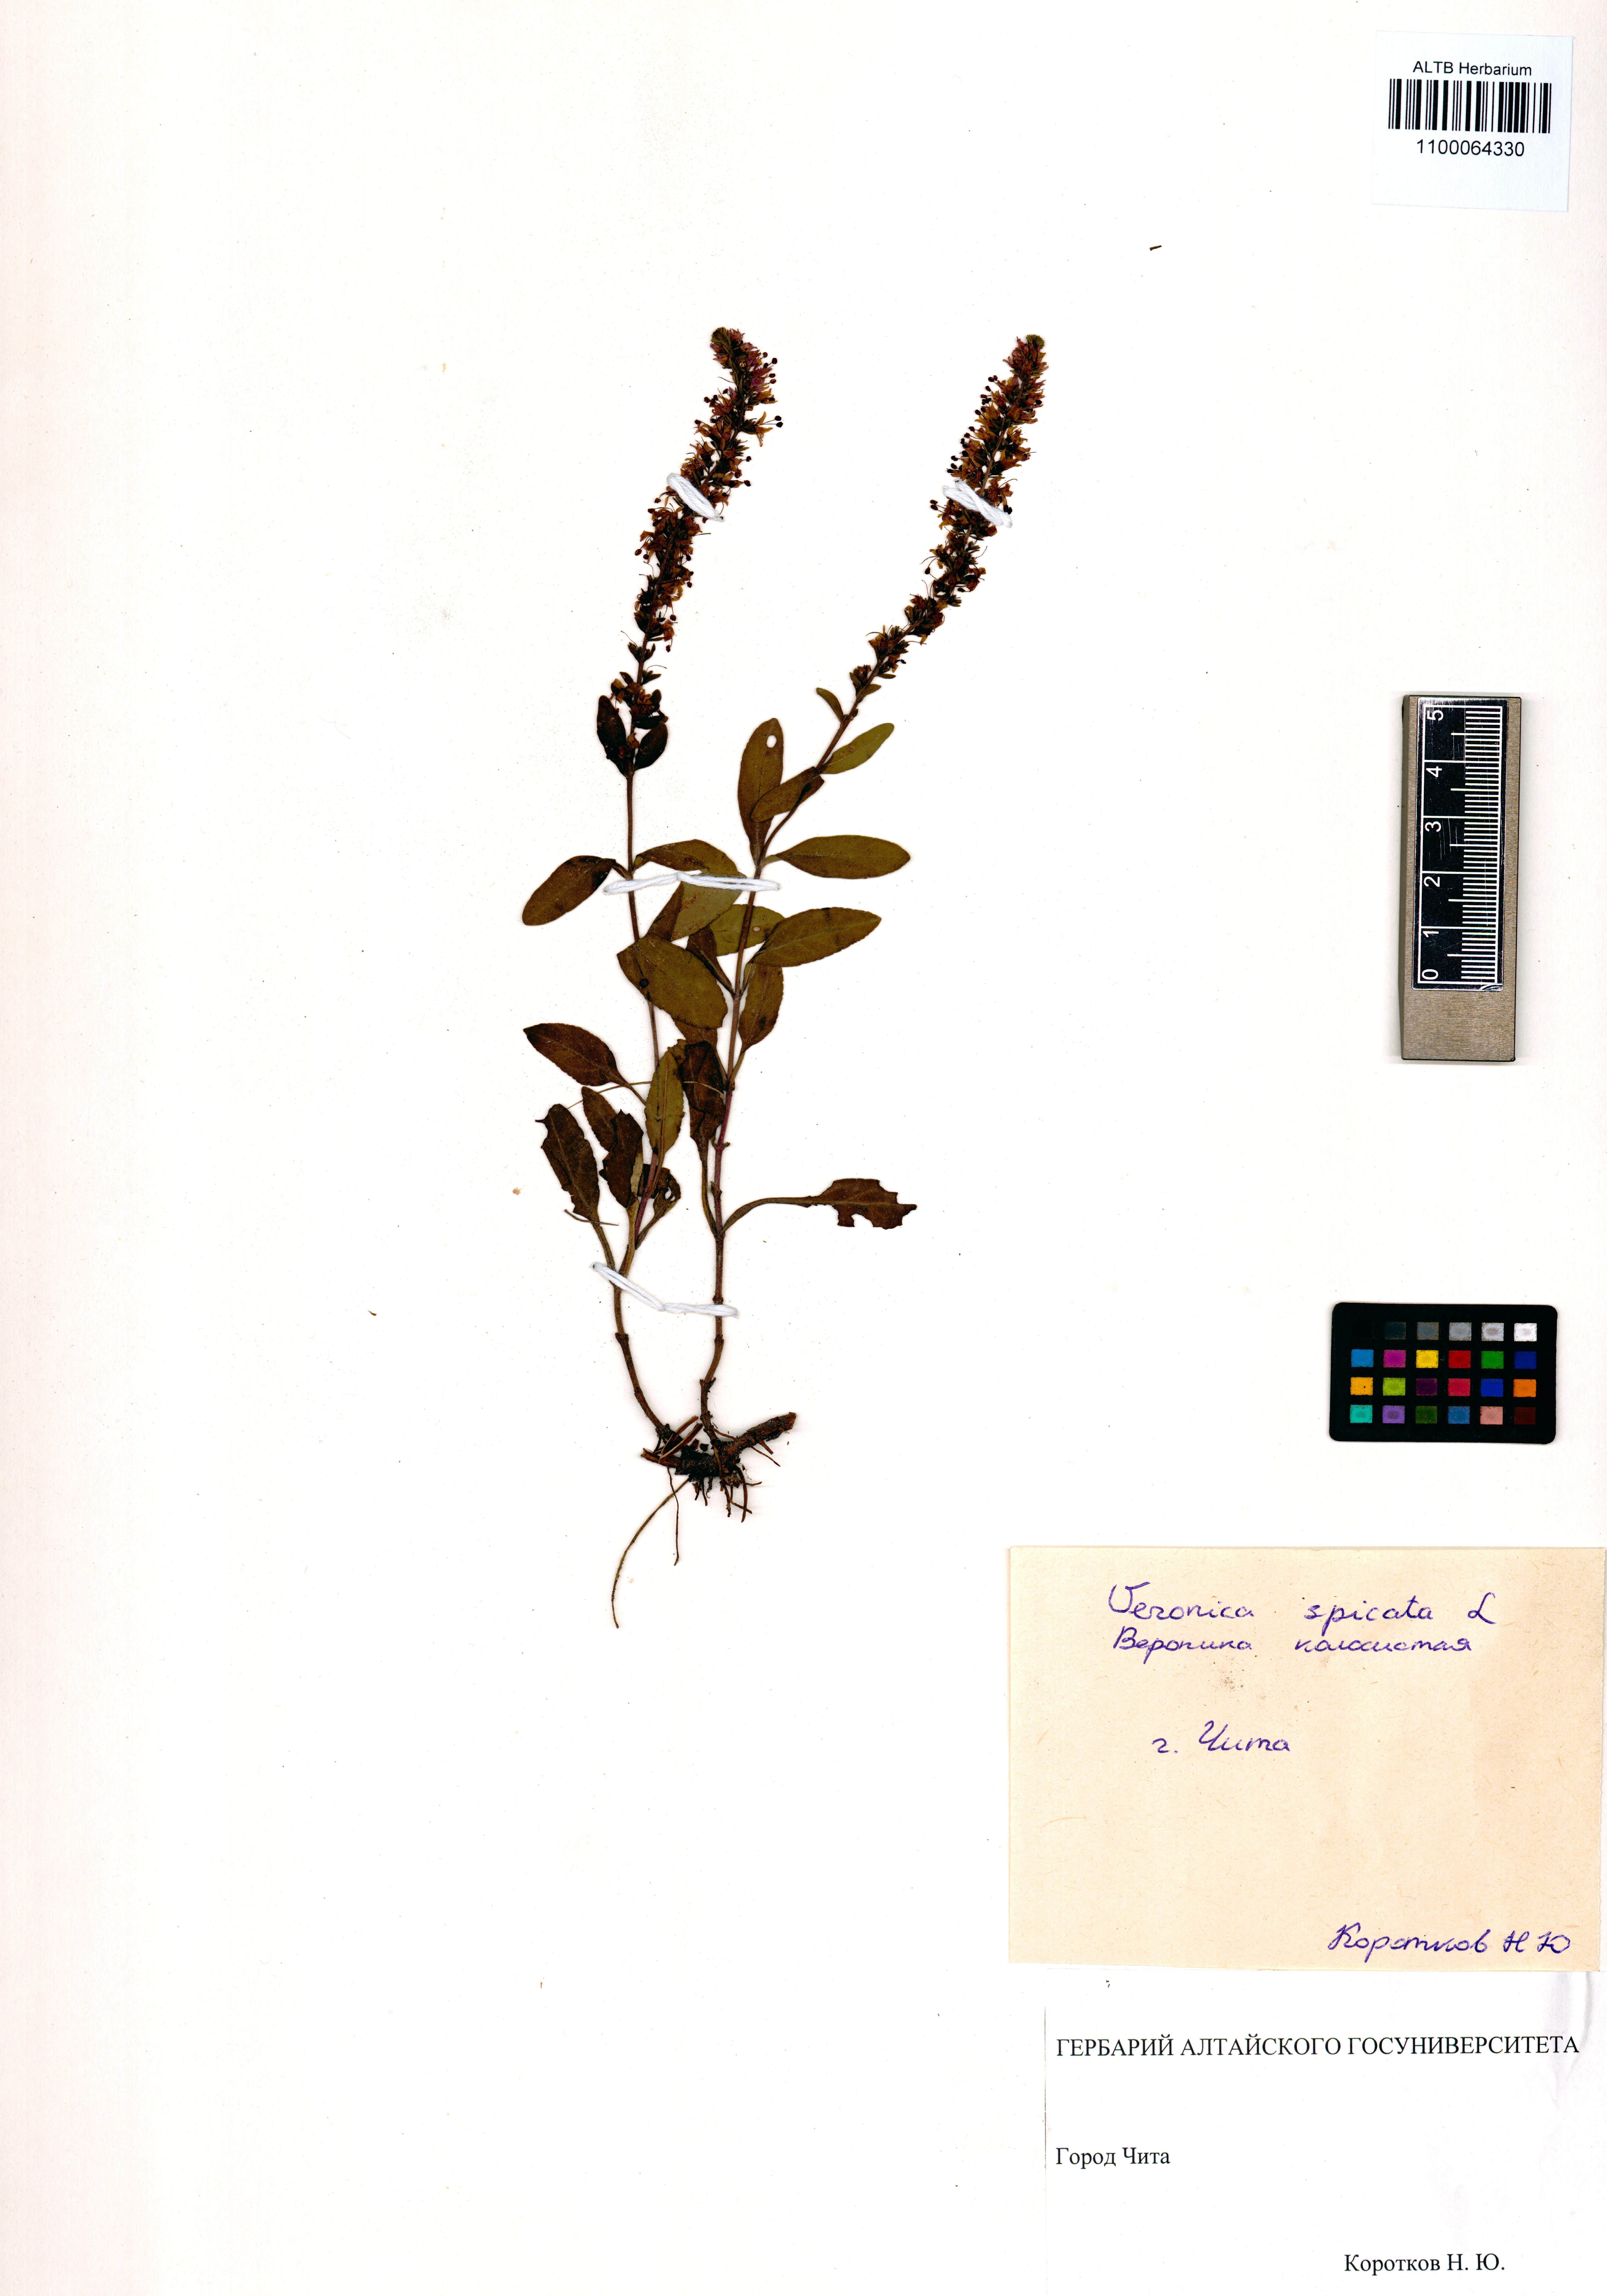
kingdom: Plantae
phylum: Tracheophyta
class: Magnoliopsida
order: Lamiales
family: Plantaginaceae
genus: Veronica
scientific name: Veronica spicata
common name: Spiked speedwell
